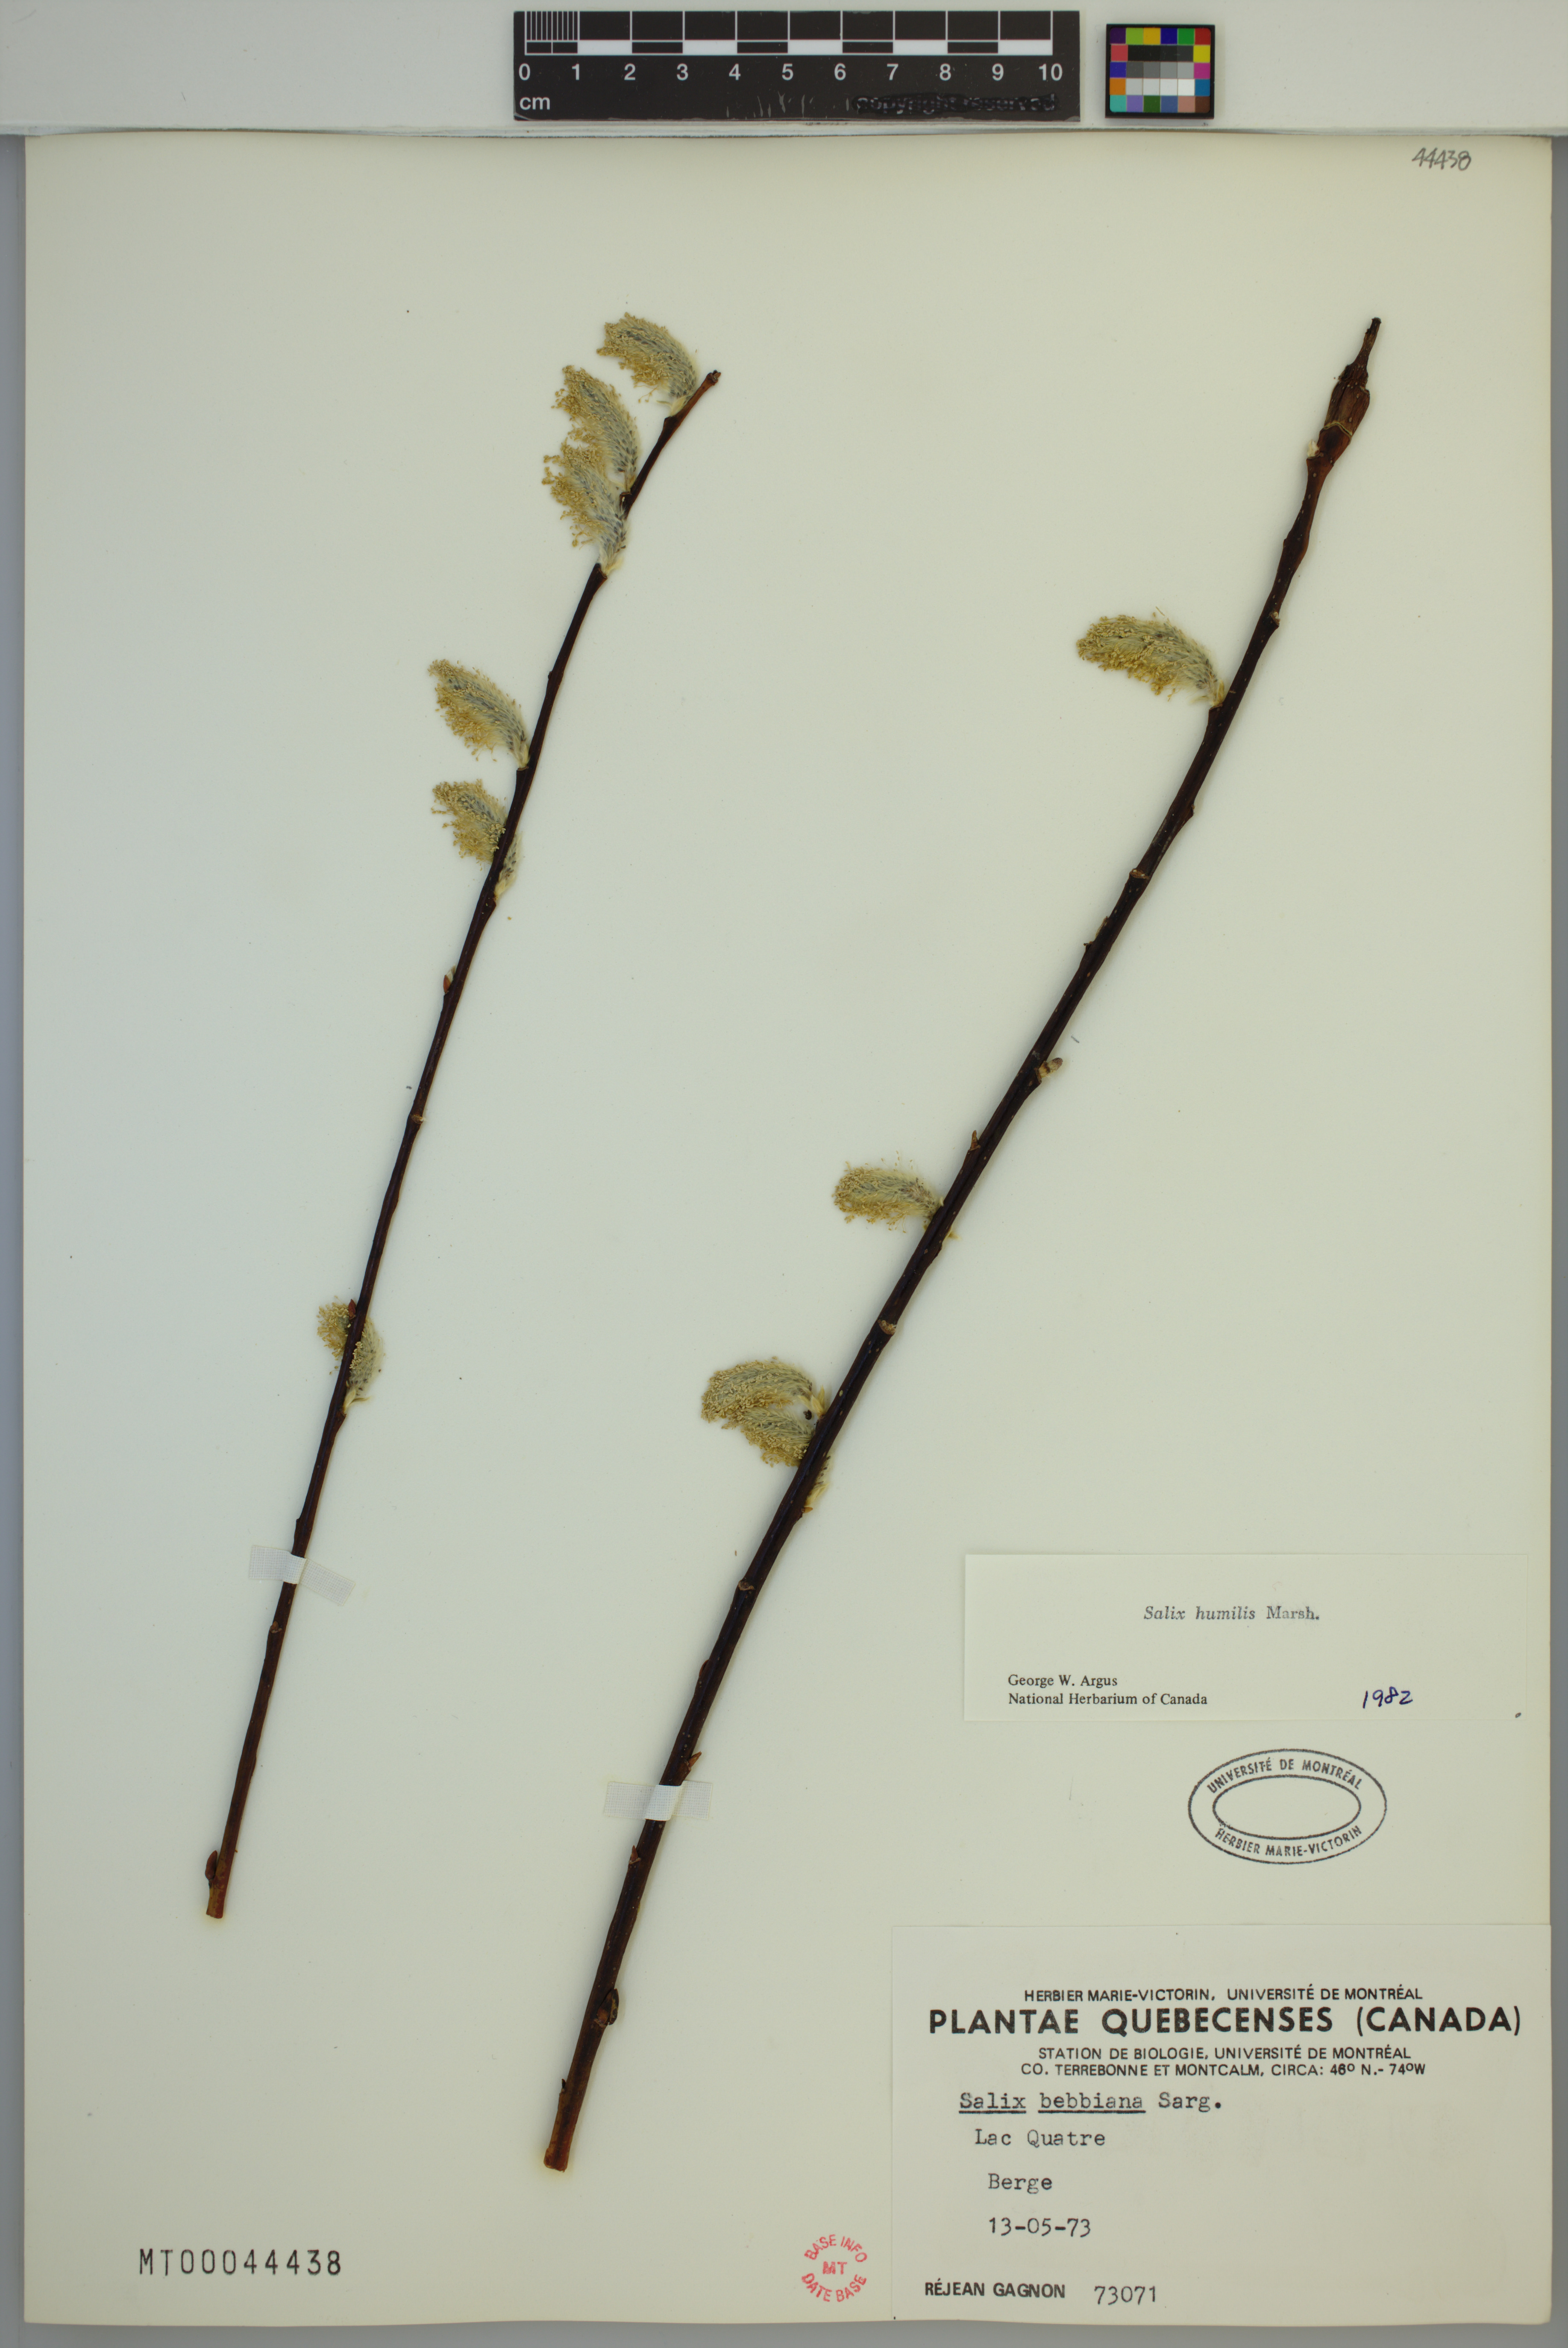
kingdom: Plantae
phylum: Tracheophyta
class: Magnoliopsida
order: Malpighiales
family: Salicaceae
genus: Salix
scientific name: Salix humilis
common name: Prairie willow
